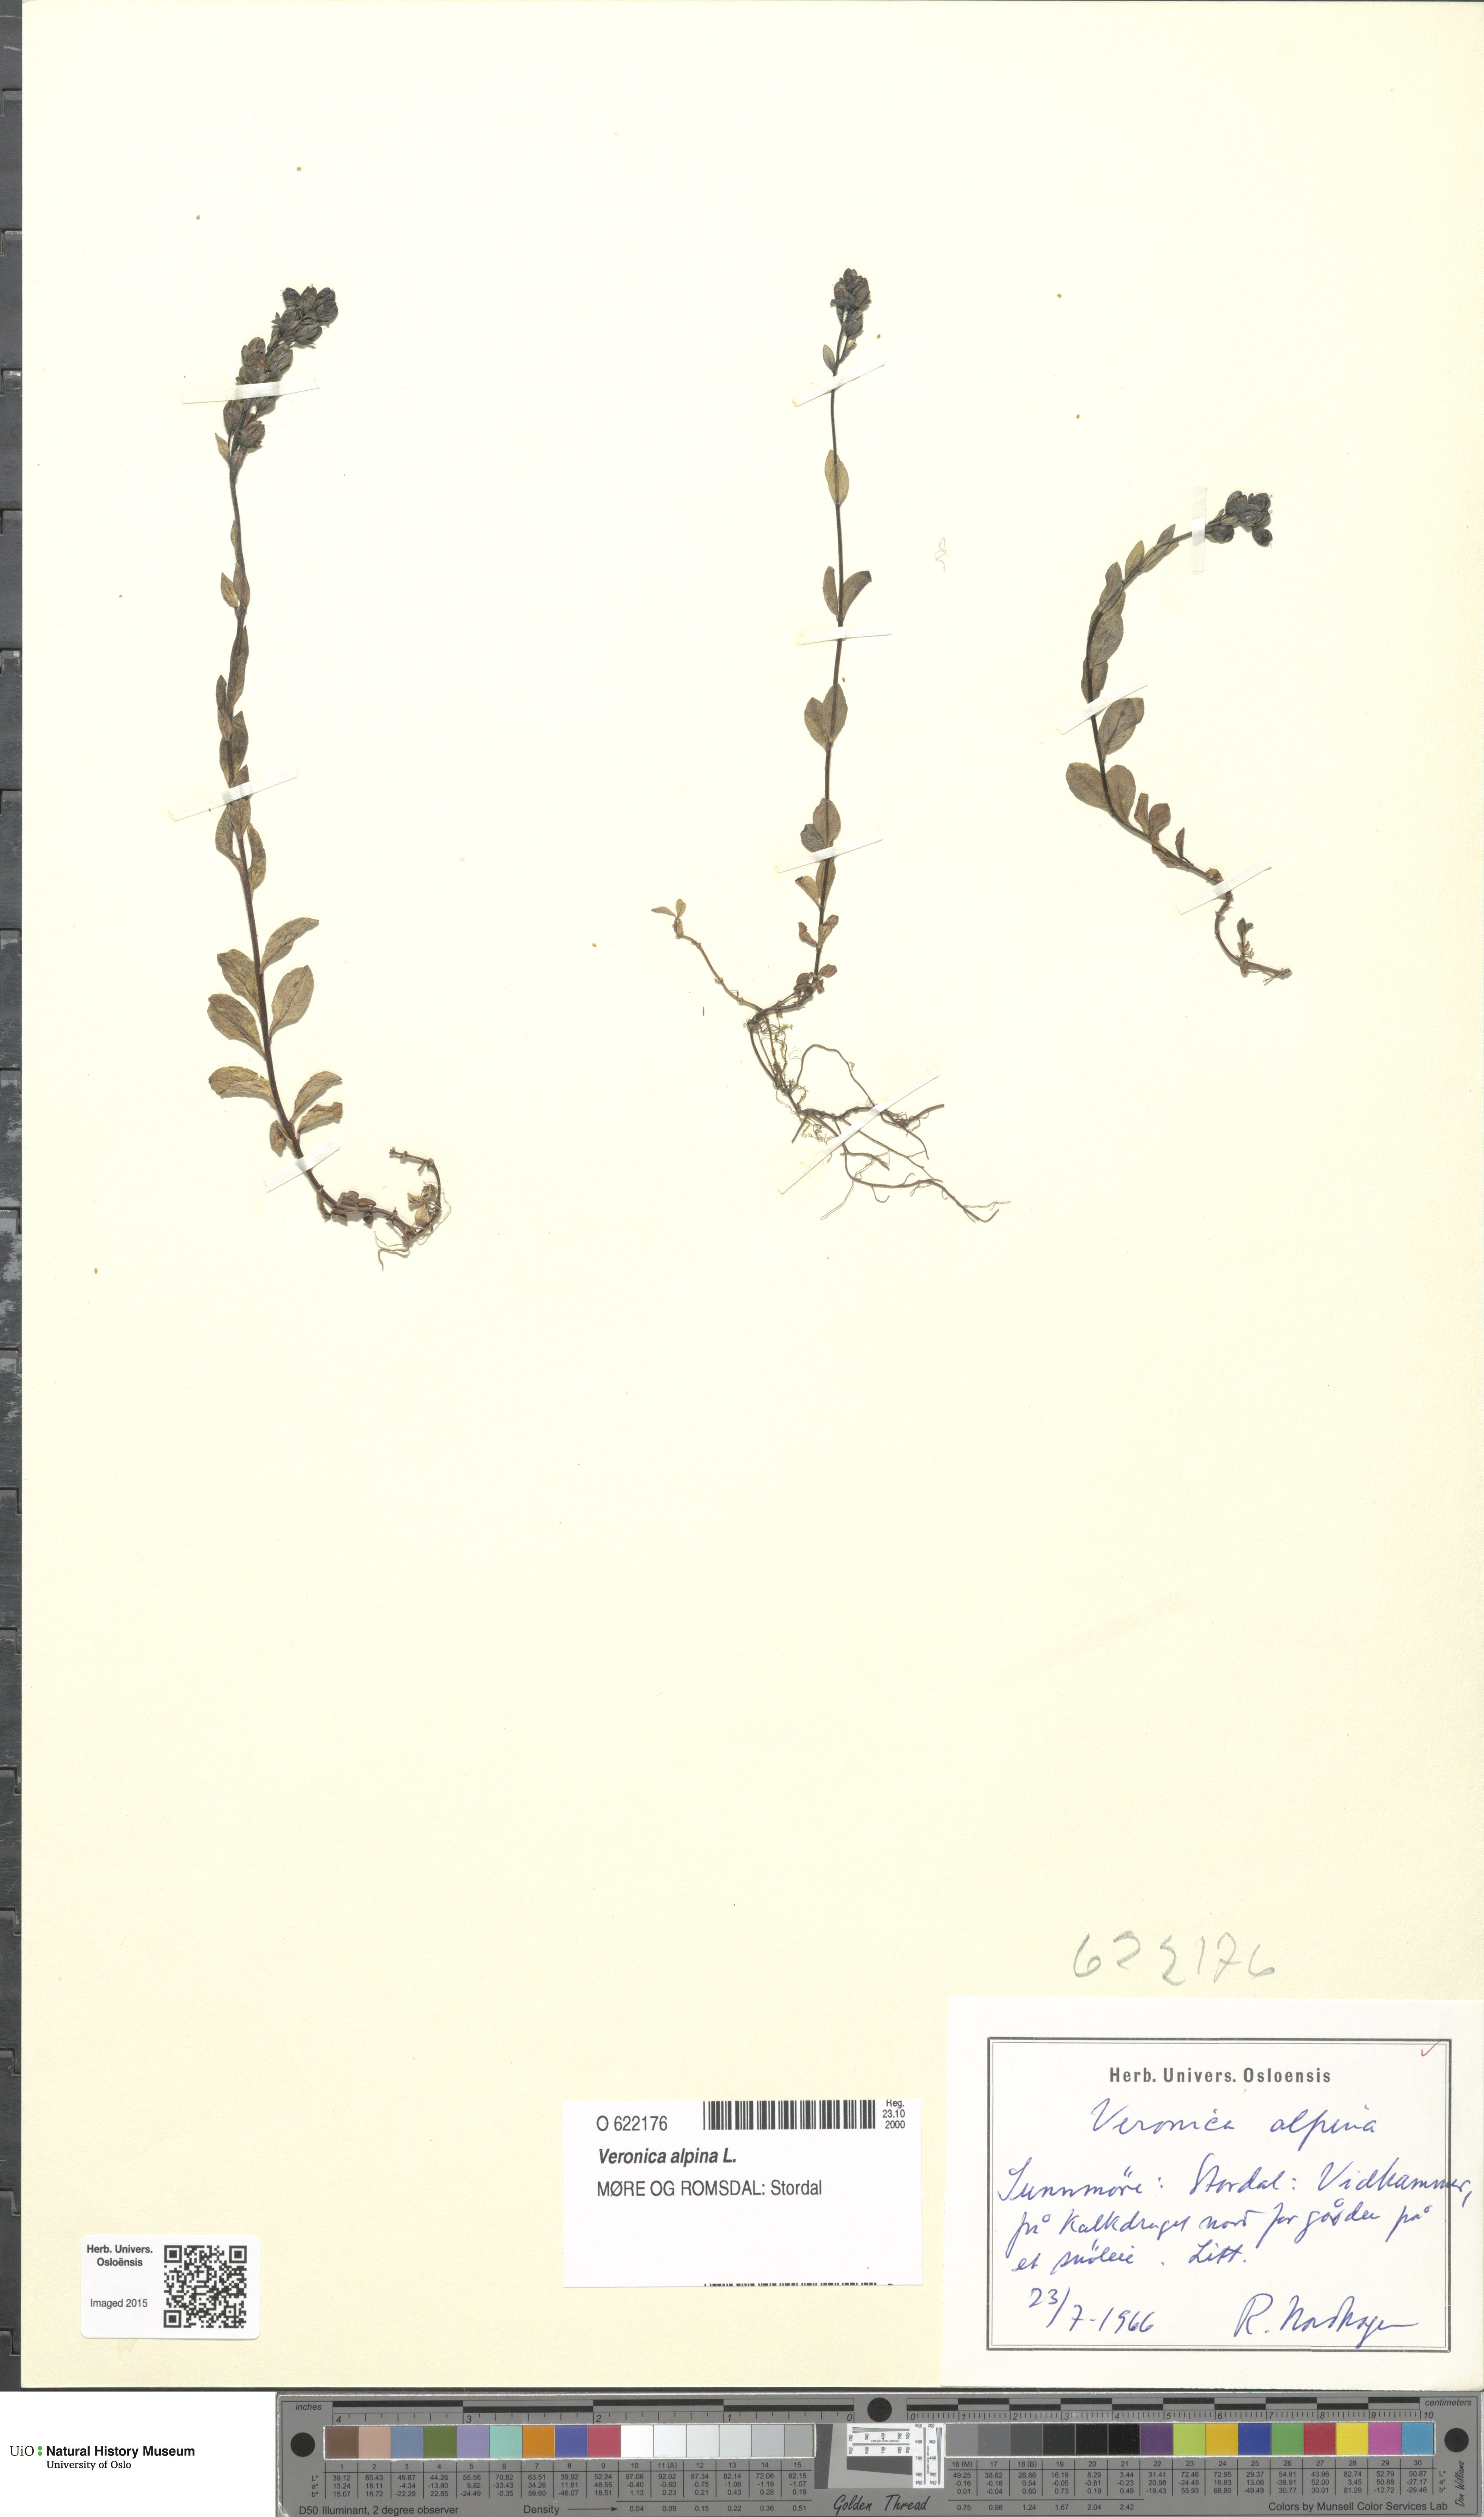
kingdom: Plantae
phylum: Tracheophyta
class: Magnoliopsida
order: Lamiales
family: Plantaginaceae
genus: Veronica
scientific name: Veronica alpina
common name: Alpine speedwell
